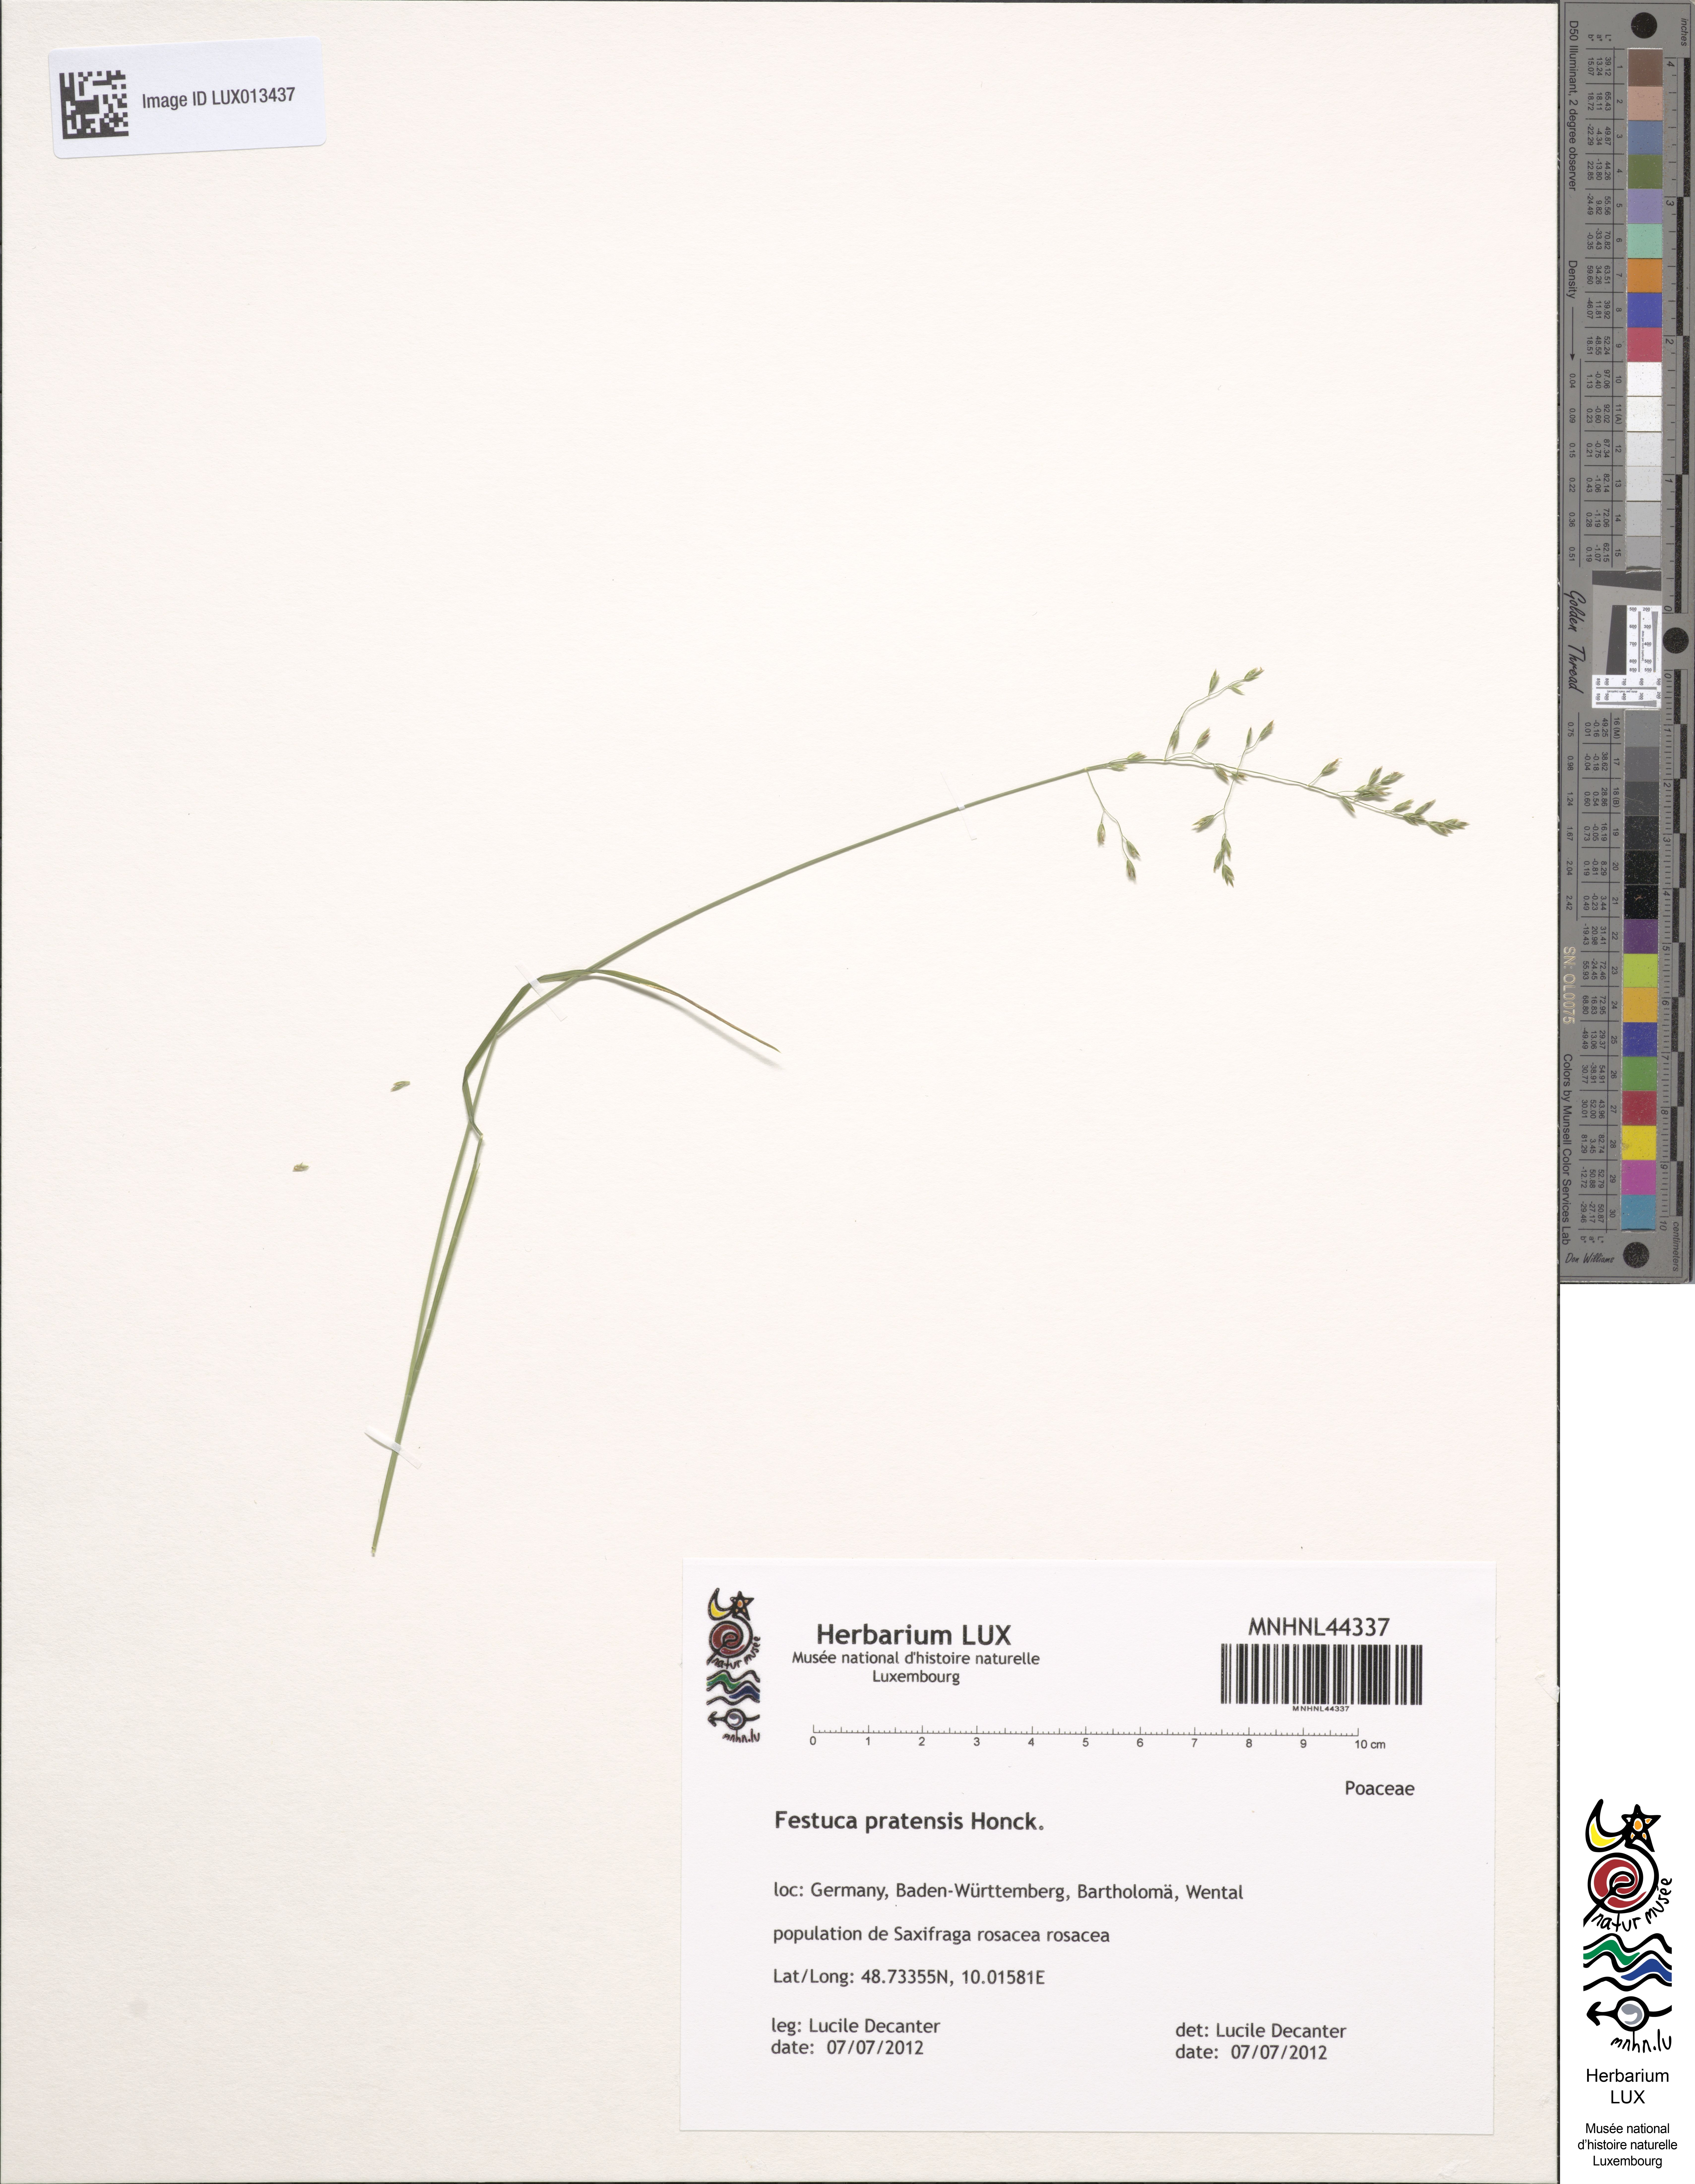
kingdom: Plantae
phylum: Tracheophyta
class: Liliopsida
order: Poales
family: Poaceae
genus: Lolium
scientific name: Lolium pratense
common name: Dover grass
